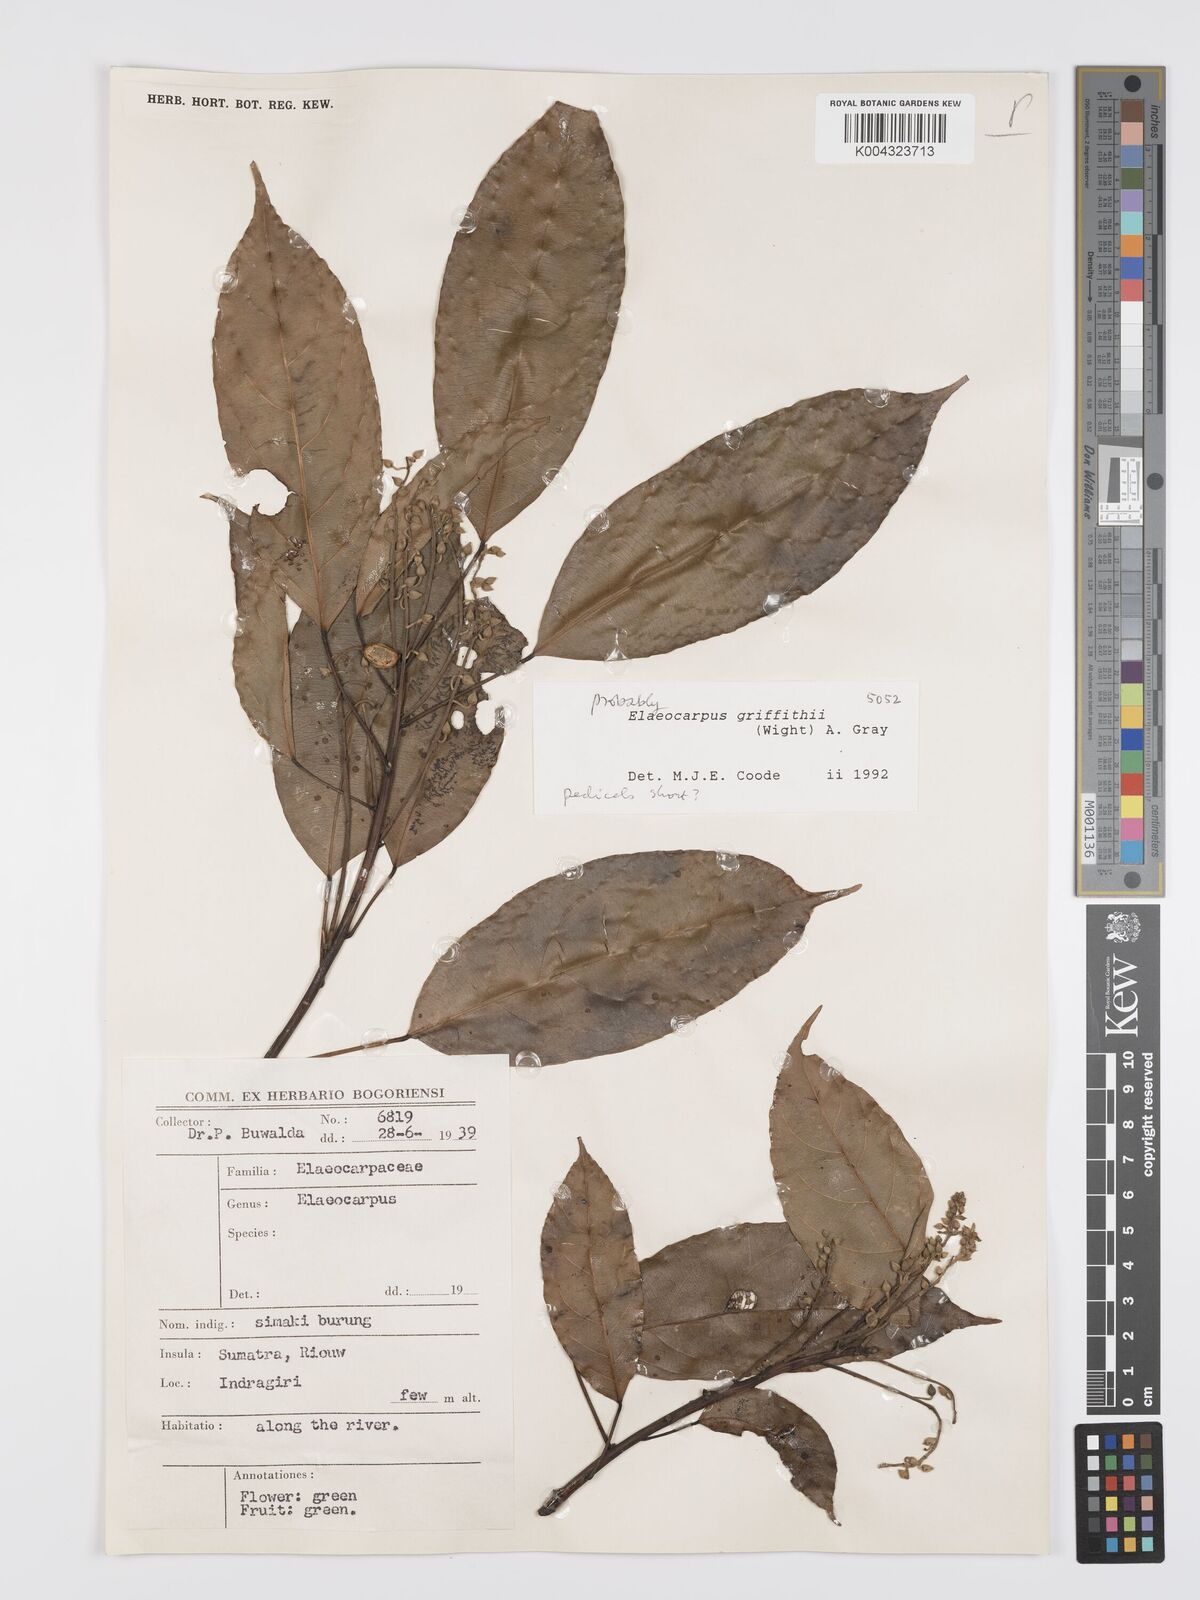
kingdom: Plantae
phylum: Tracheophyta
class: Magnoliopsida
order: Oxalidales
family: Elaeocarpaceae
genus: Elaeocarpus
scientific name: Elaeocarpus griffithii
